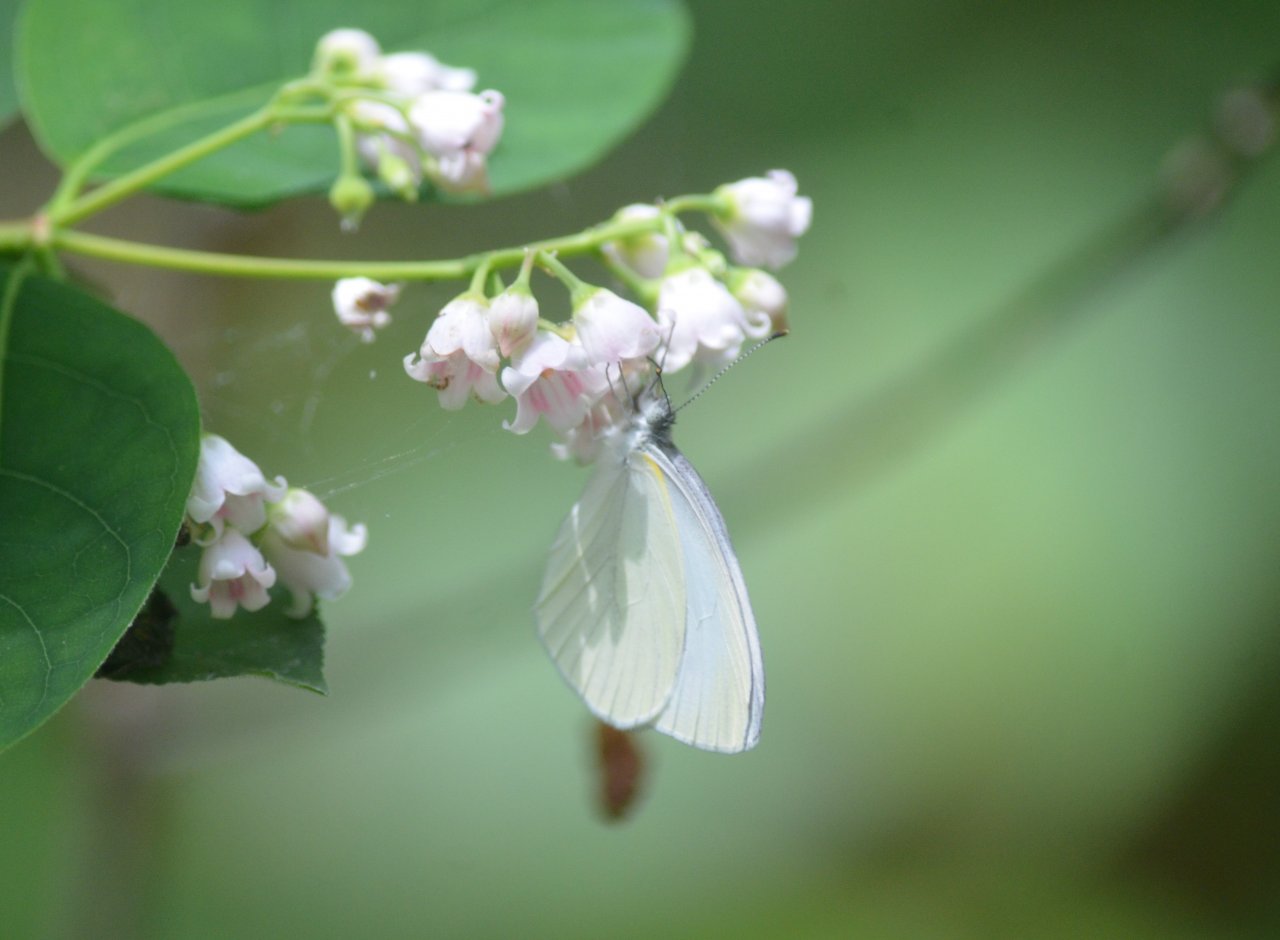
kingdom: Animalia
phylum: Arthropoda
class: Insecta
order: Lepidoptera
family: Pieridae
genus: Pieris
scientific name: Pieris oleracea
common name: Mustard White
